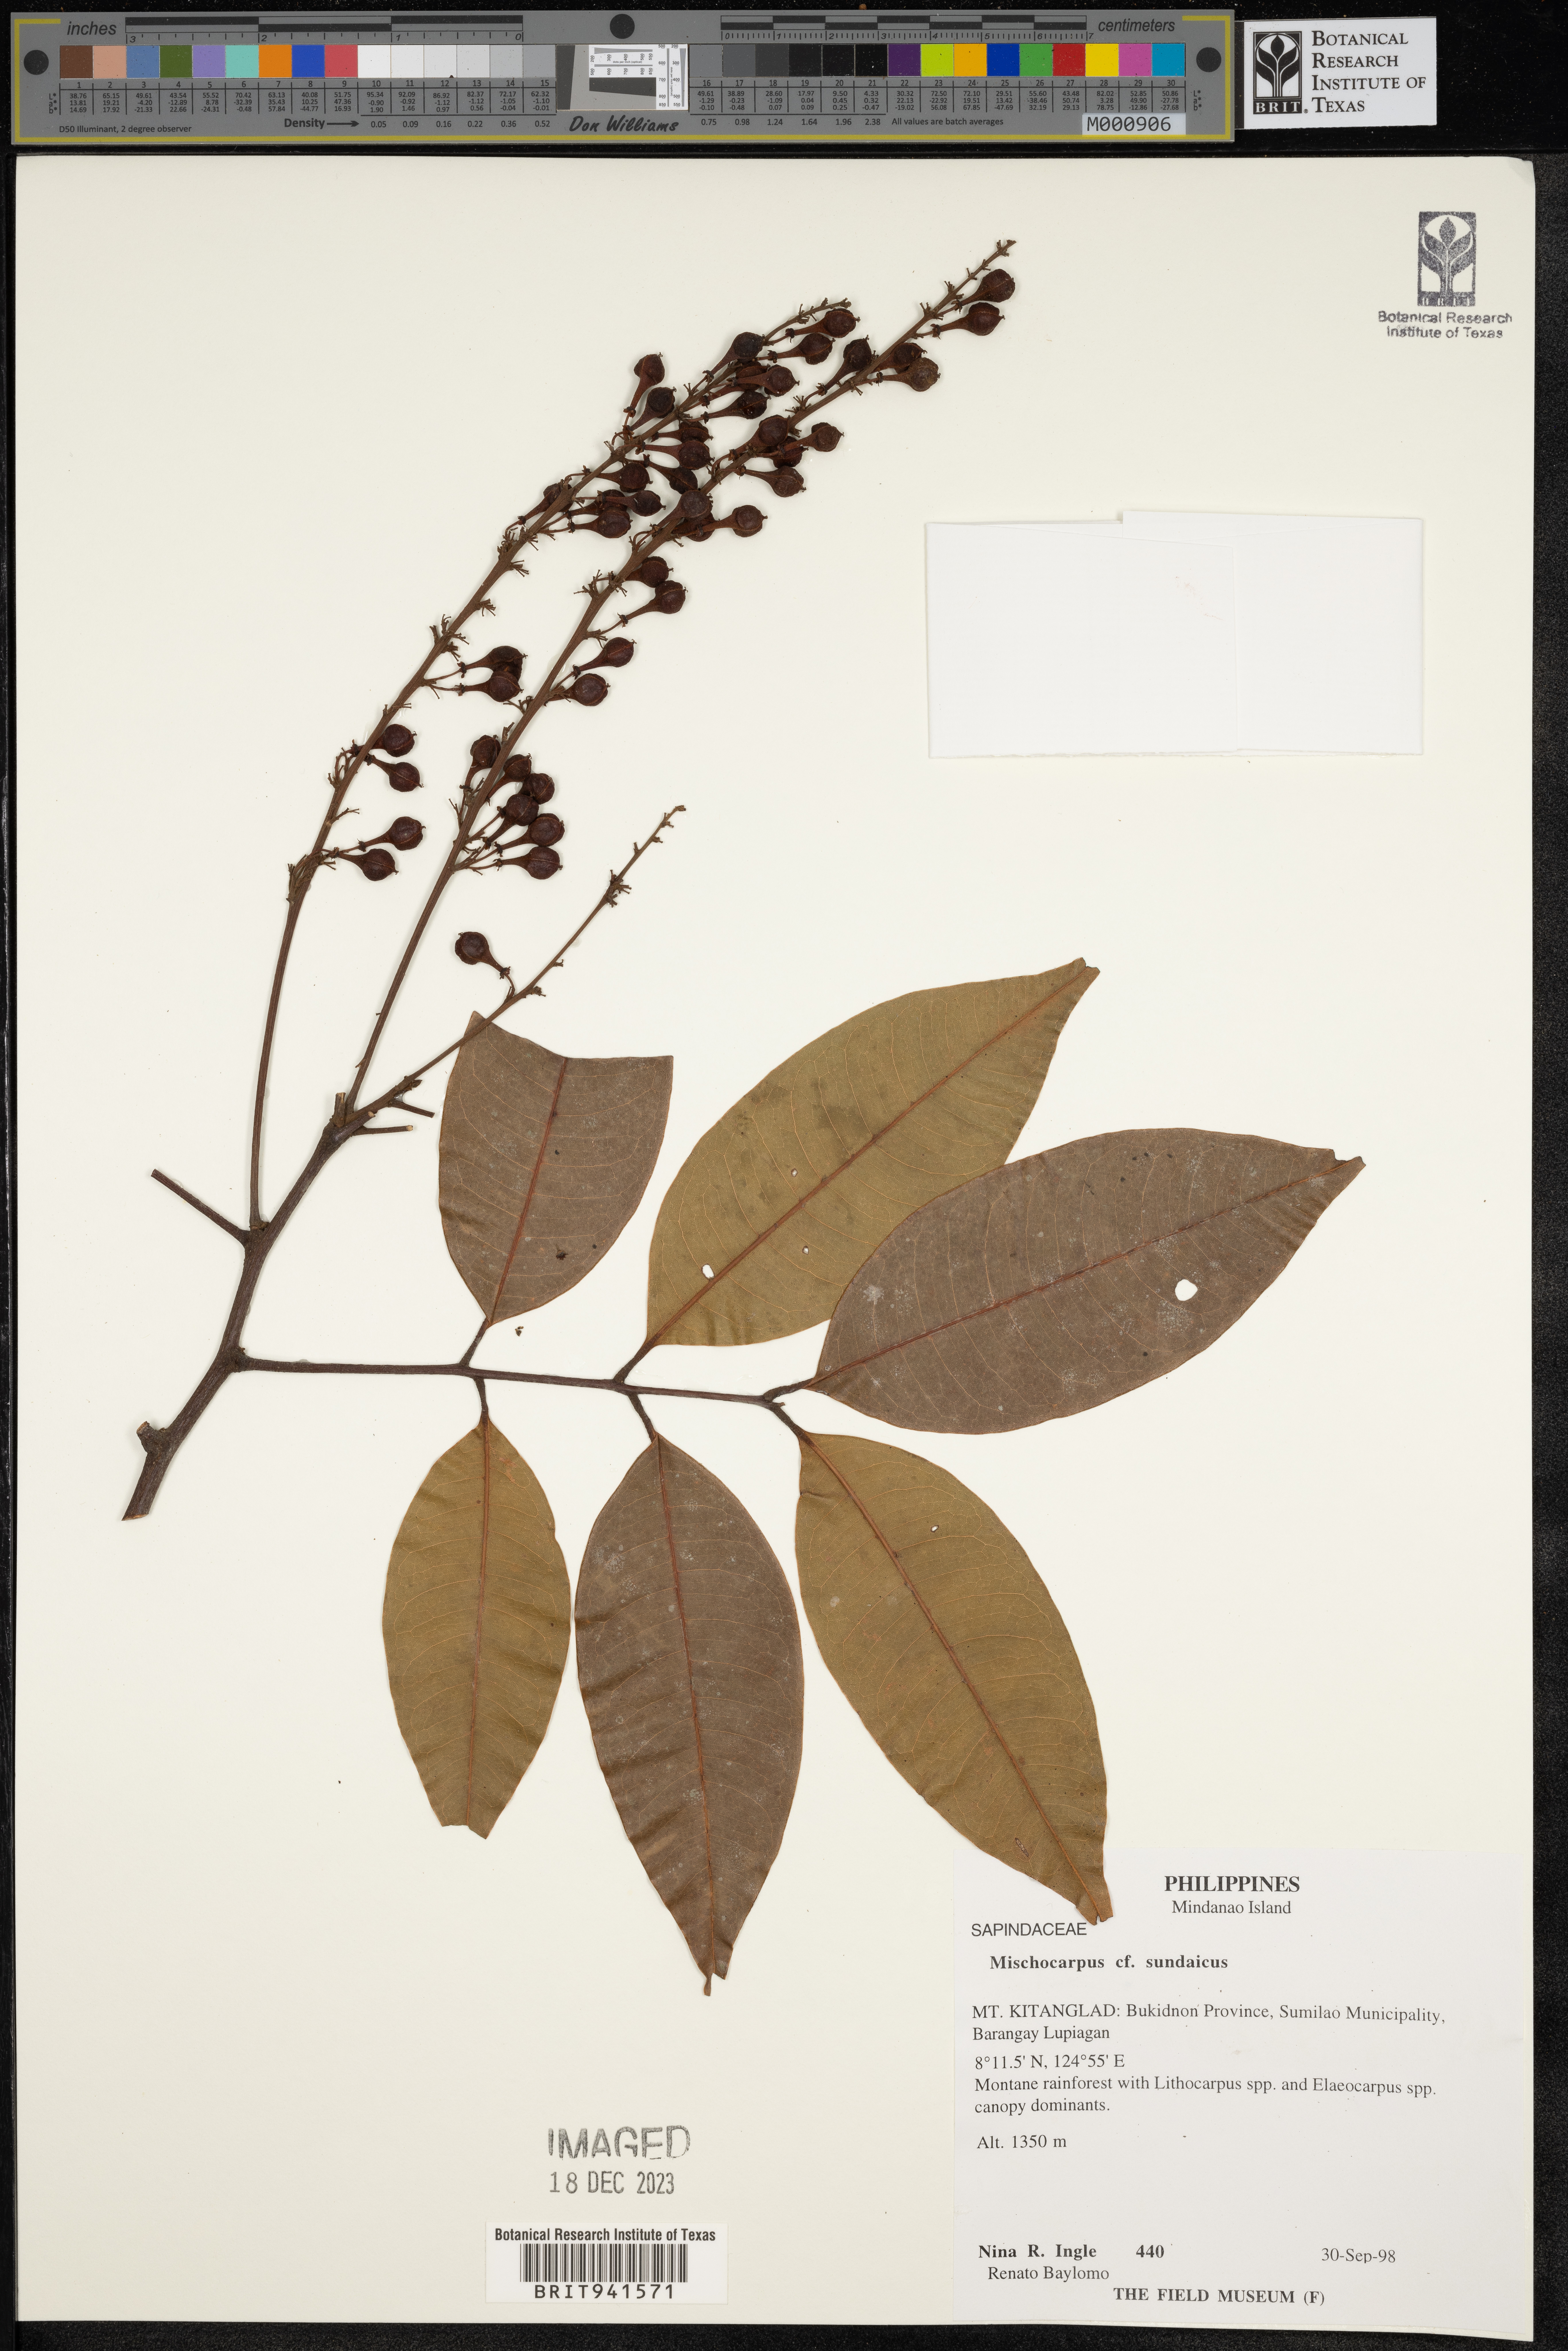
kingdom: Plantae
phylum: Tracheophyta
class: Magnoliopsida
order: Sapindales
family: Sapindaceae
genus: Mischocarpus
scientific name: Mischocarpus
